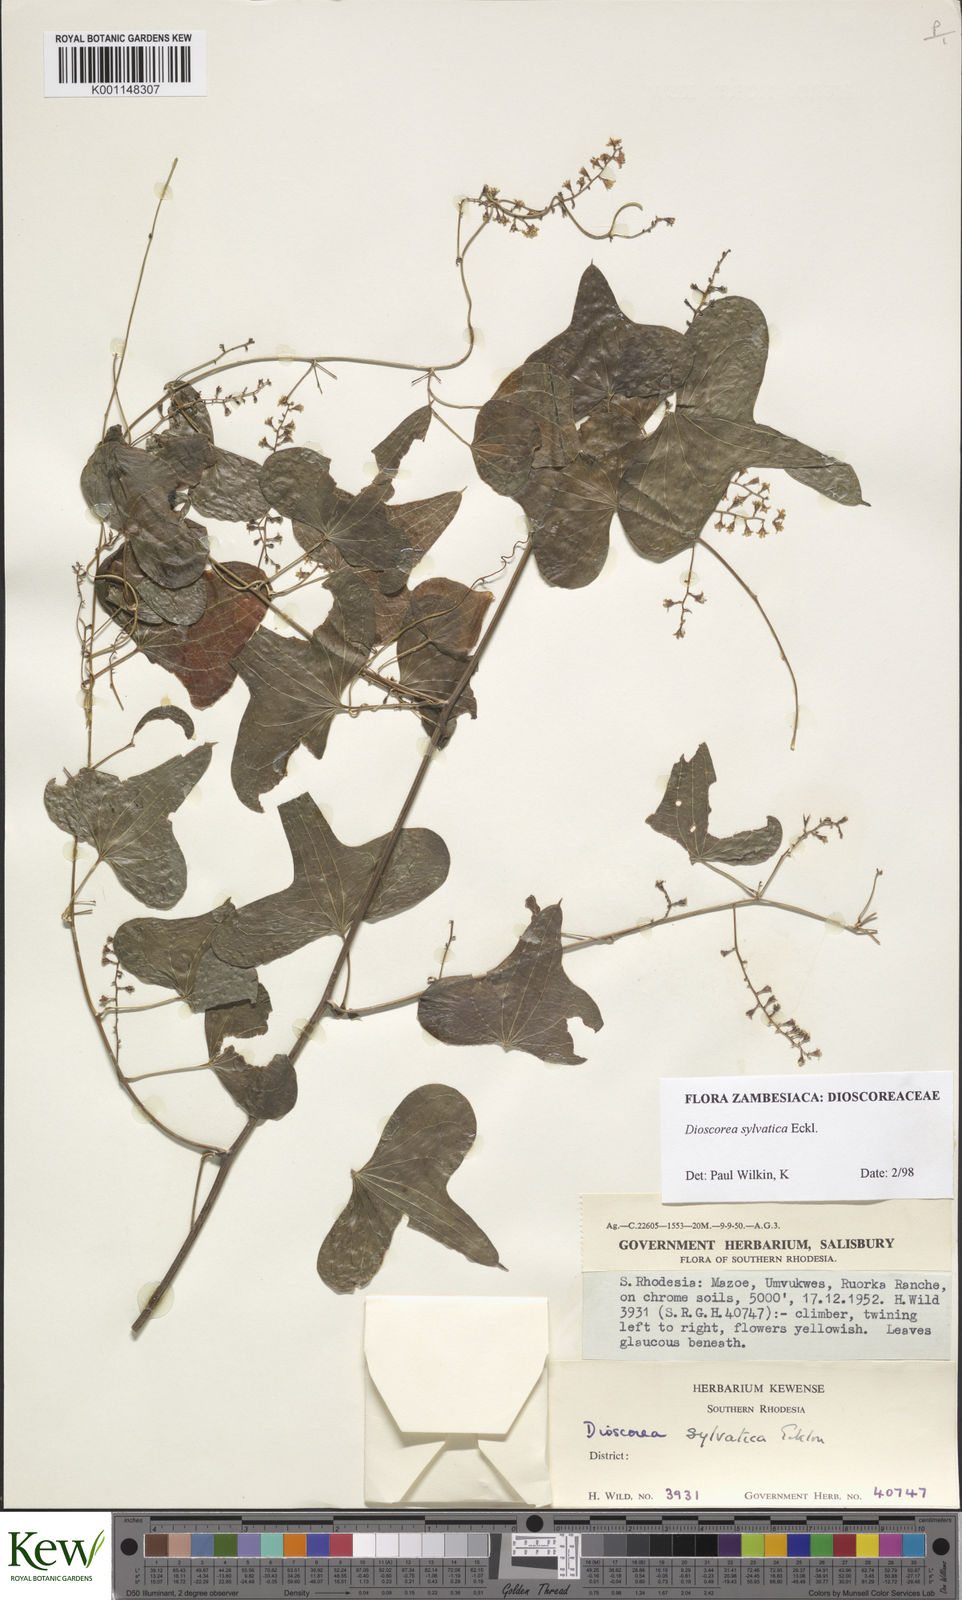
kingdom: Plantae
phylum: Tracheophyta
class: Liliopsida
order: Dioscoreales
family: Dioscoreaceae
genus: Dioscorea
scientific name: Dioscorea sylvatica
